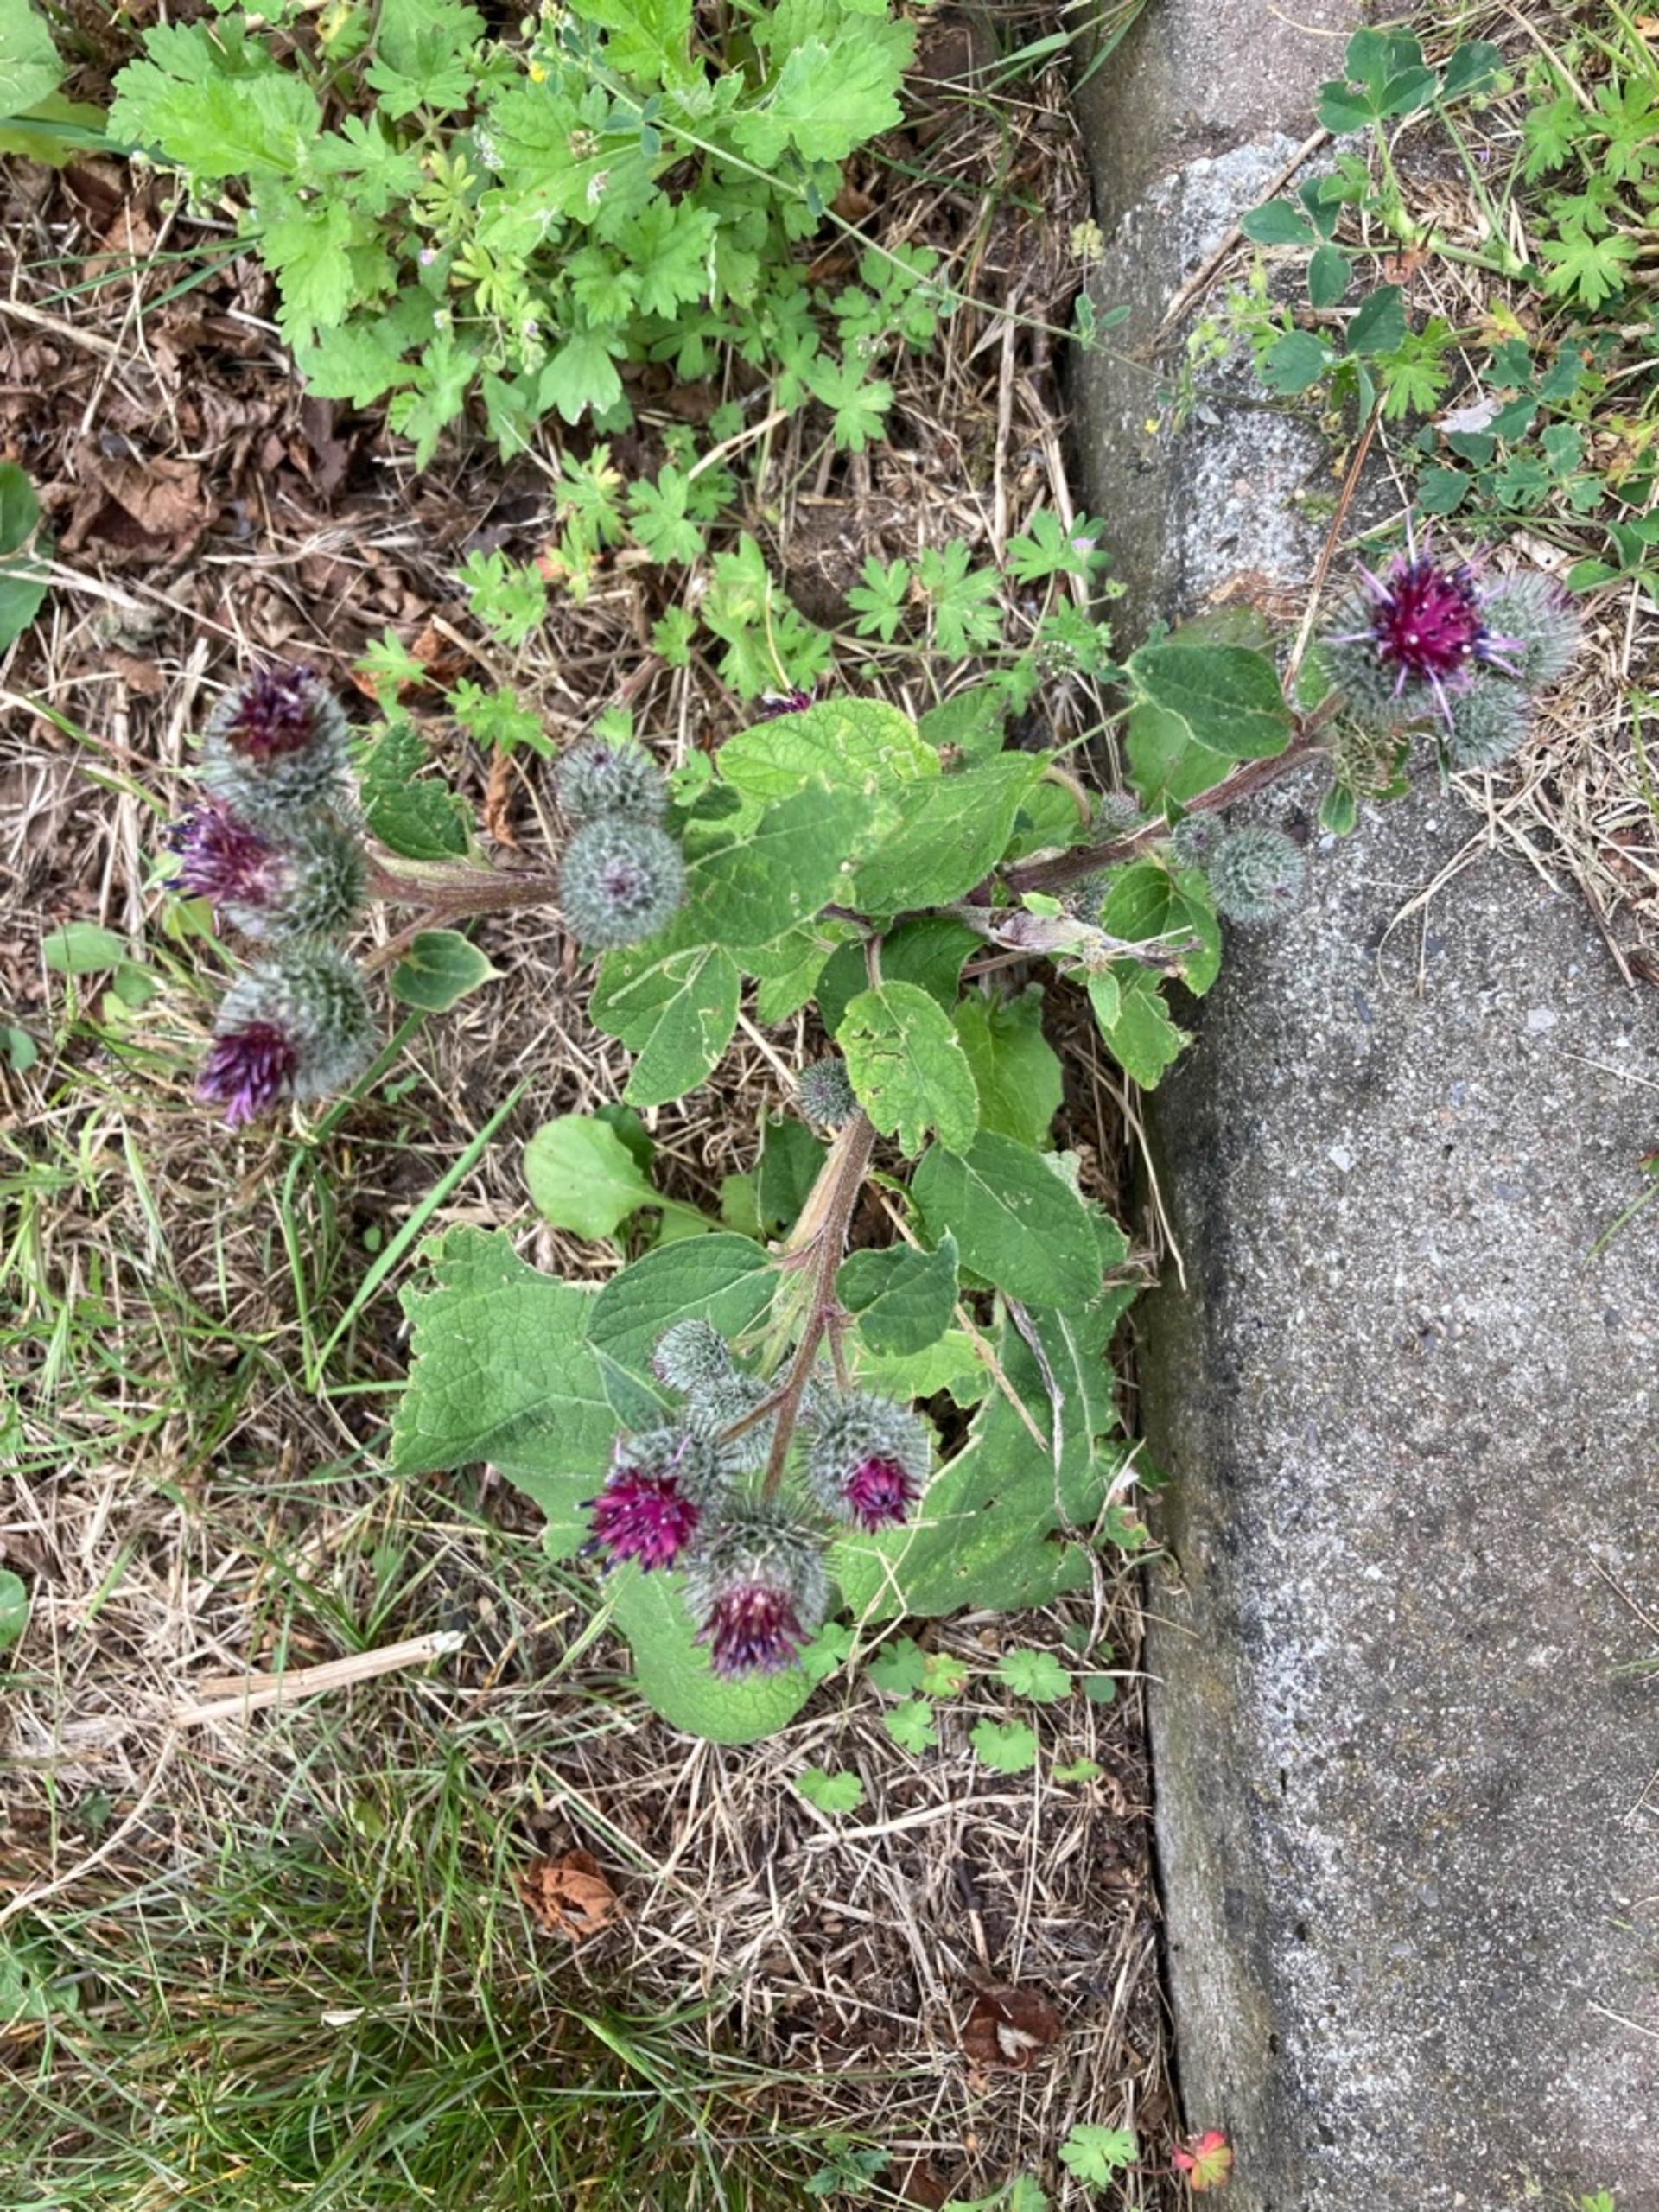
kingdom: Plantae
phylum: Tracheophyta
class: Magnoliopsida
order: Asterales
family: Asteraceae
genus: Arctium
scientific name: Arctium tomentosum
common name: Filtet burre
